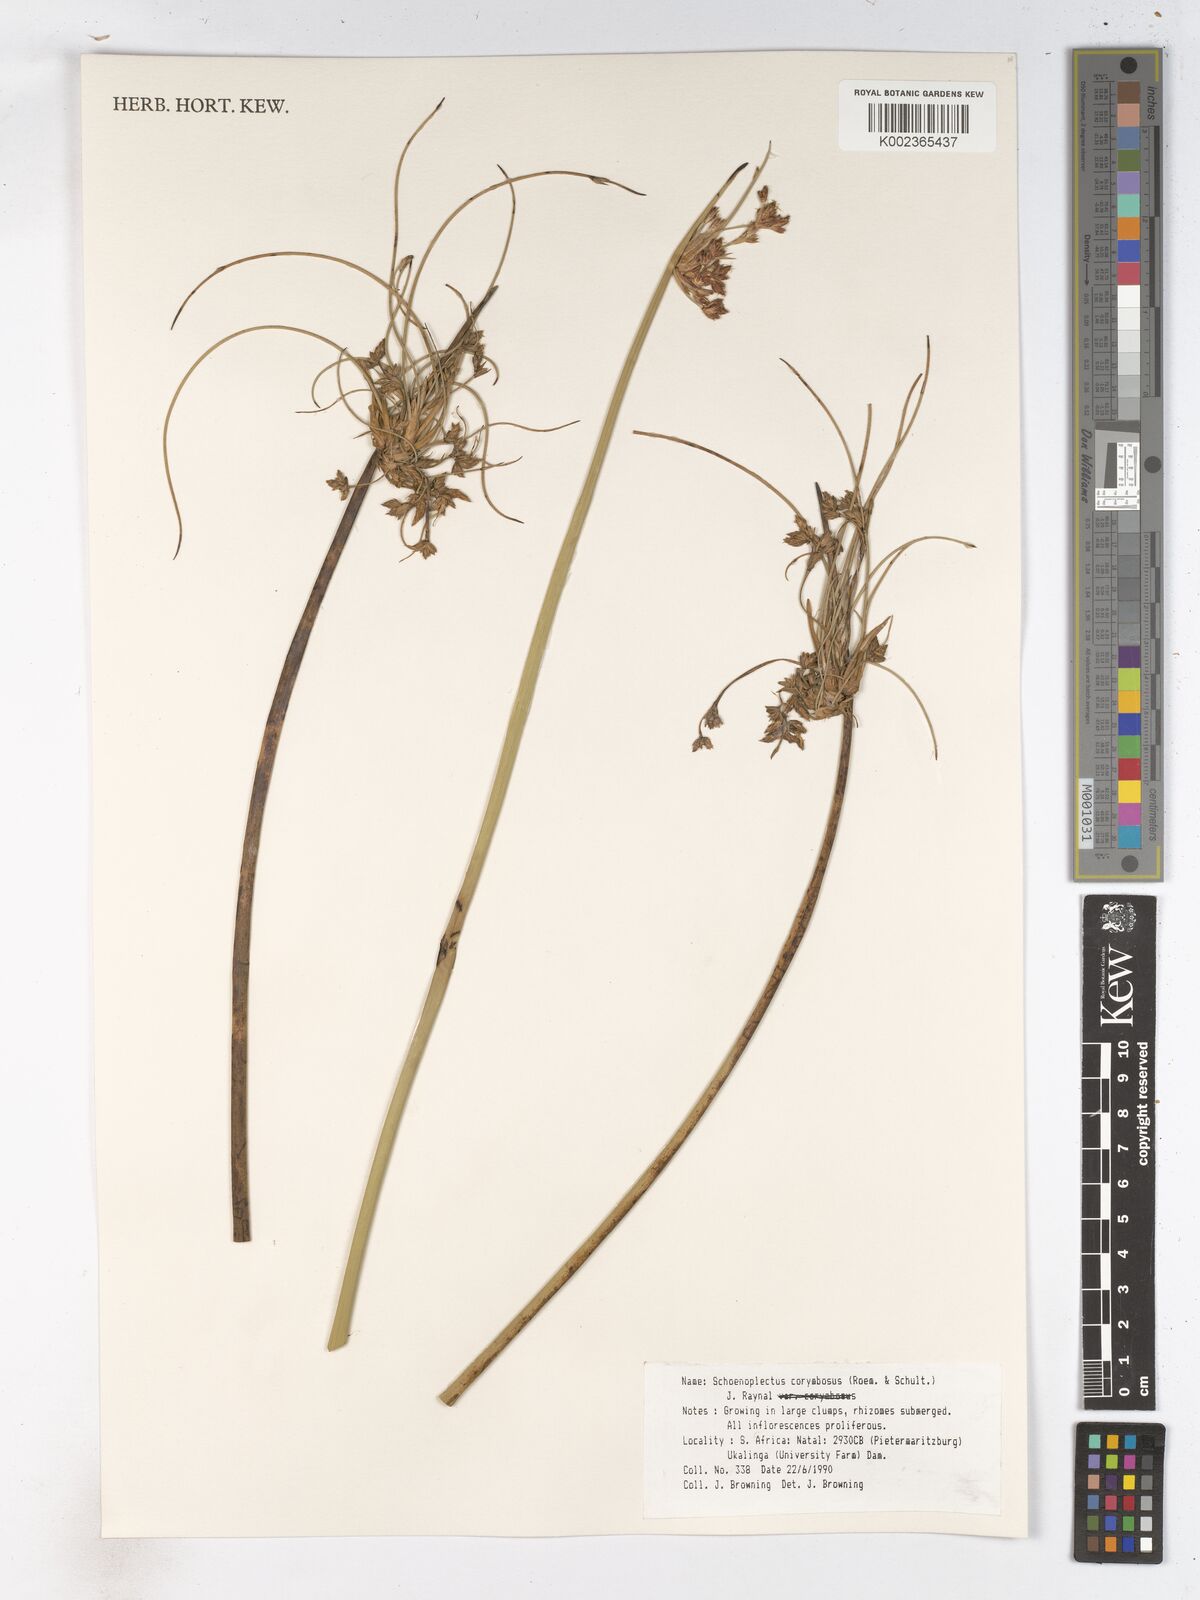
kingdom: Plantae
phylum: Tracheophyta
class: Liliopsida
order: Poales
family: Cyperaceae
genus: Schoenoplectiella
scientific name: Schoenoplectiella brachyceras
